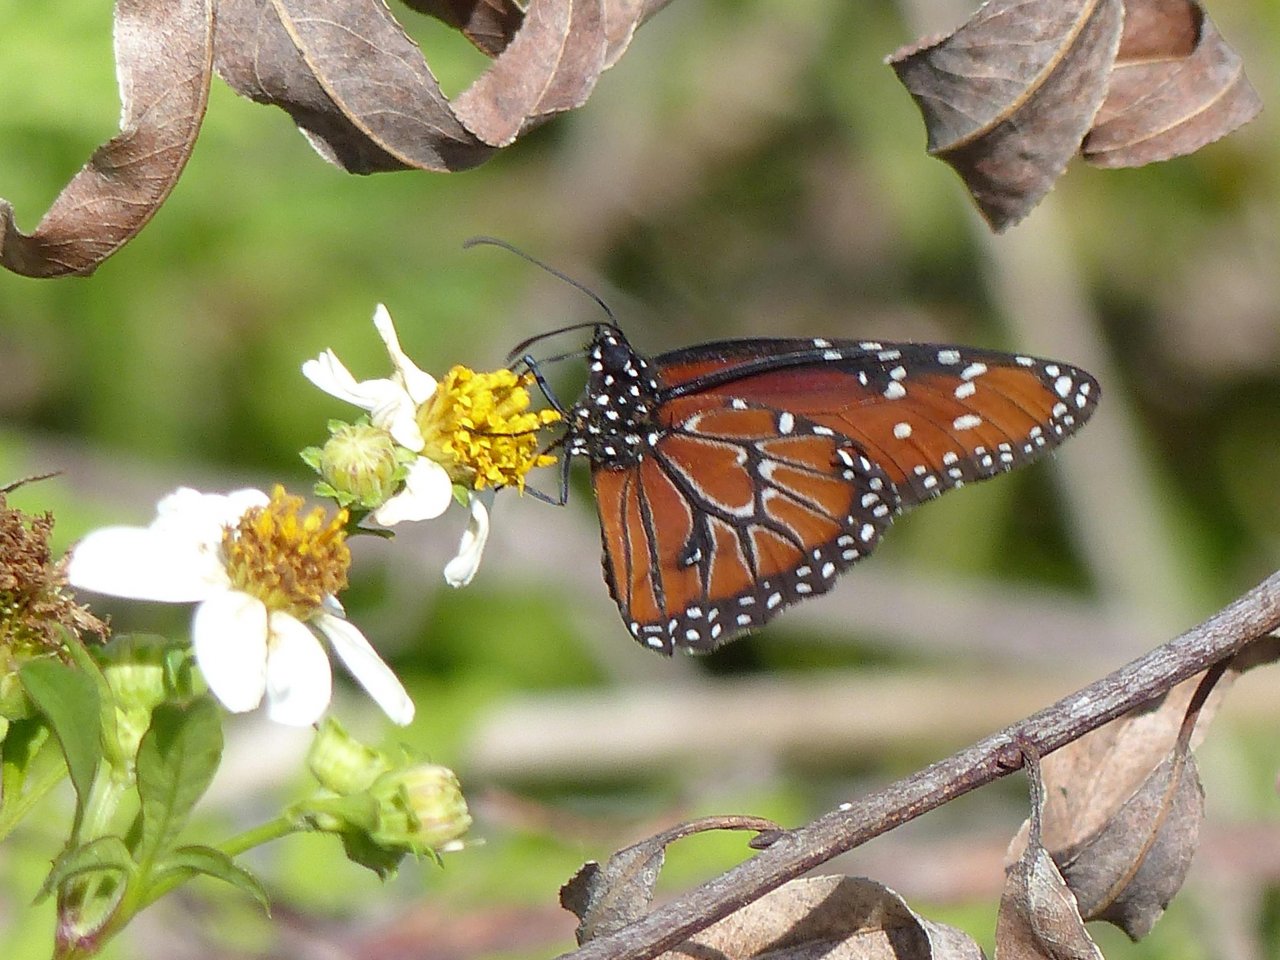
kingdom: Animalia
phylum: Arthropoda
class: Insecta
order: Lepidoptera
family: Nymphalidae
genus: Danaus
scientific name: Danaus gilippus
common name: Queen
